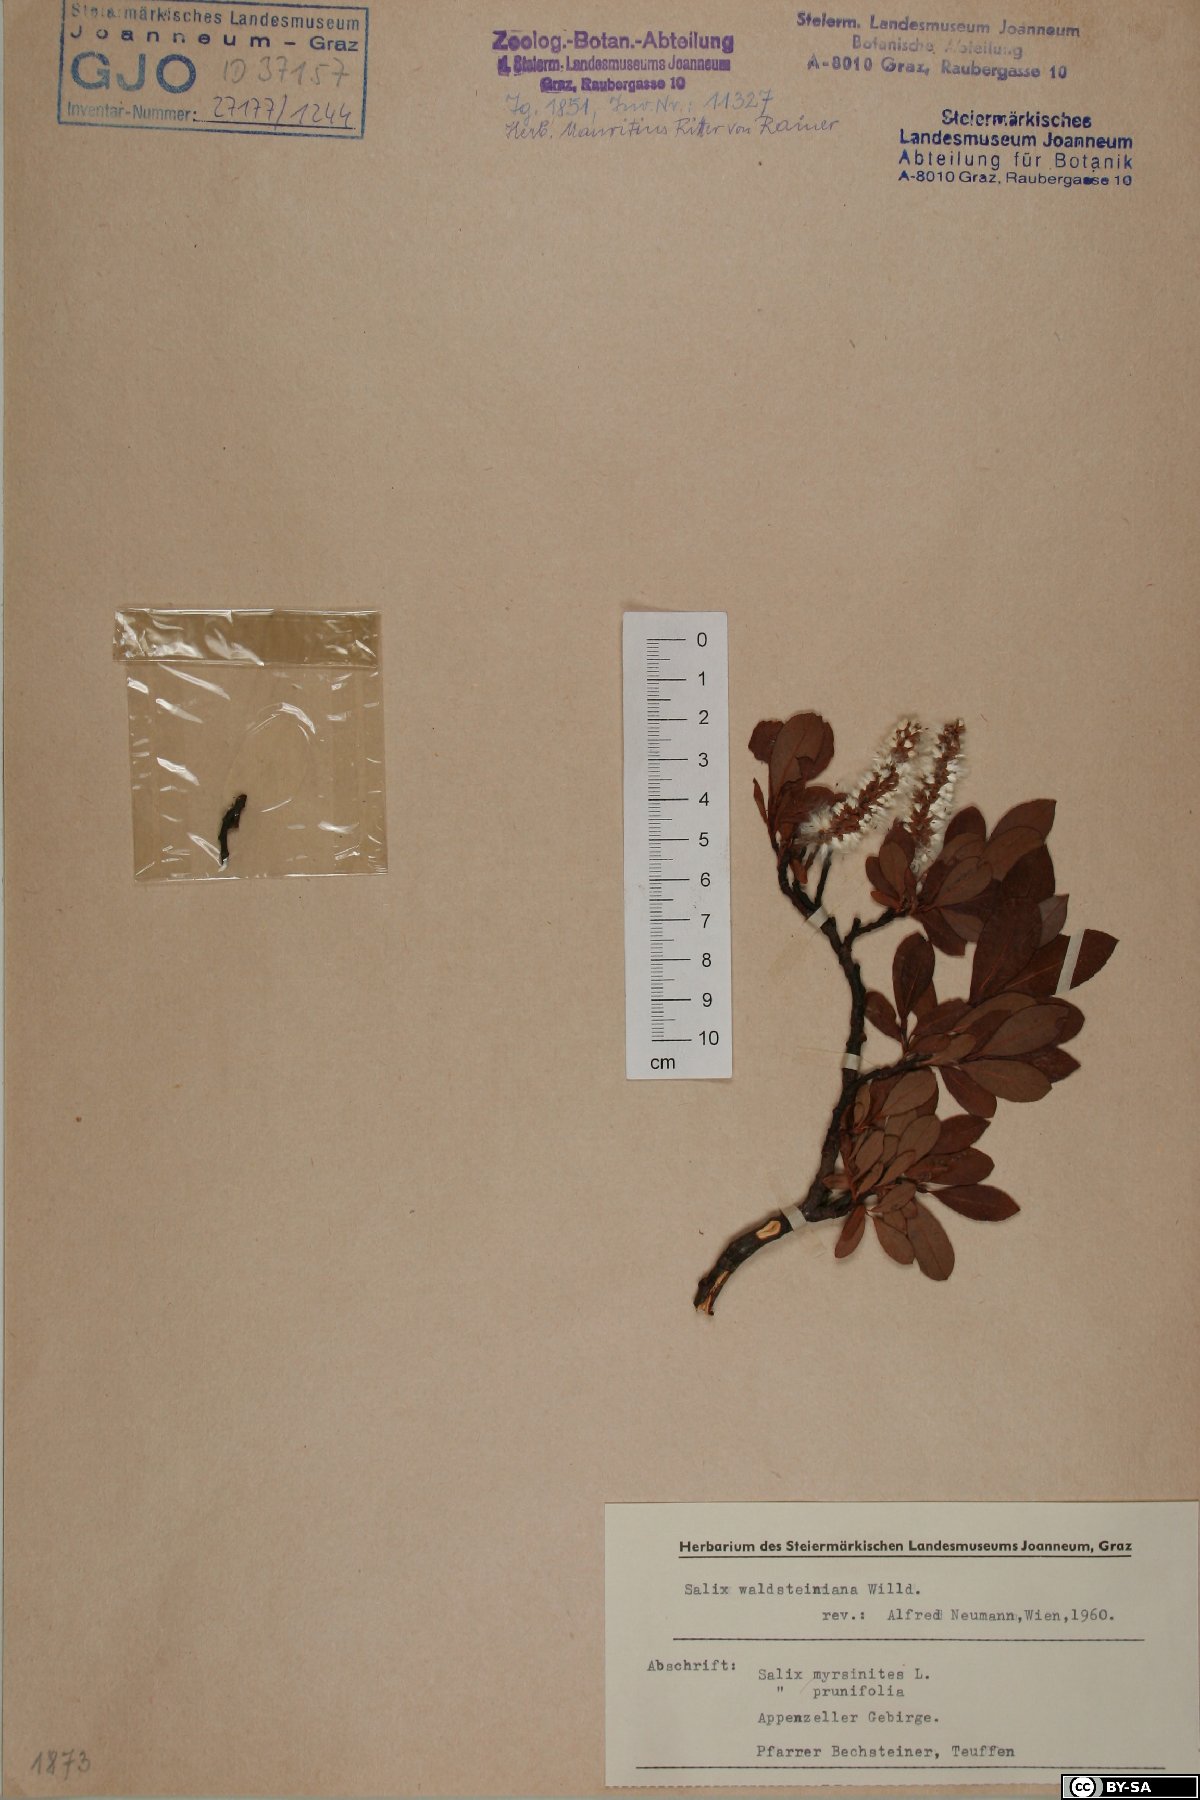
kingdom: Plantae
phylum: Tracheophyta
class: Magnoliopsida
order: Malpighiales
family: Salicaceae
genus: Salix
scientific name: Salix waldsteiniana
